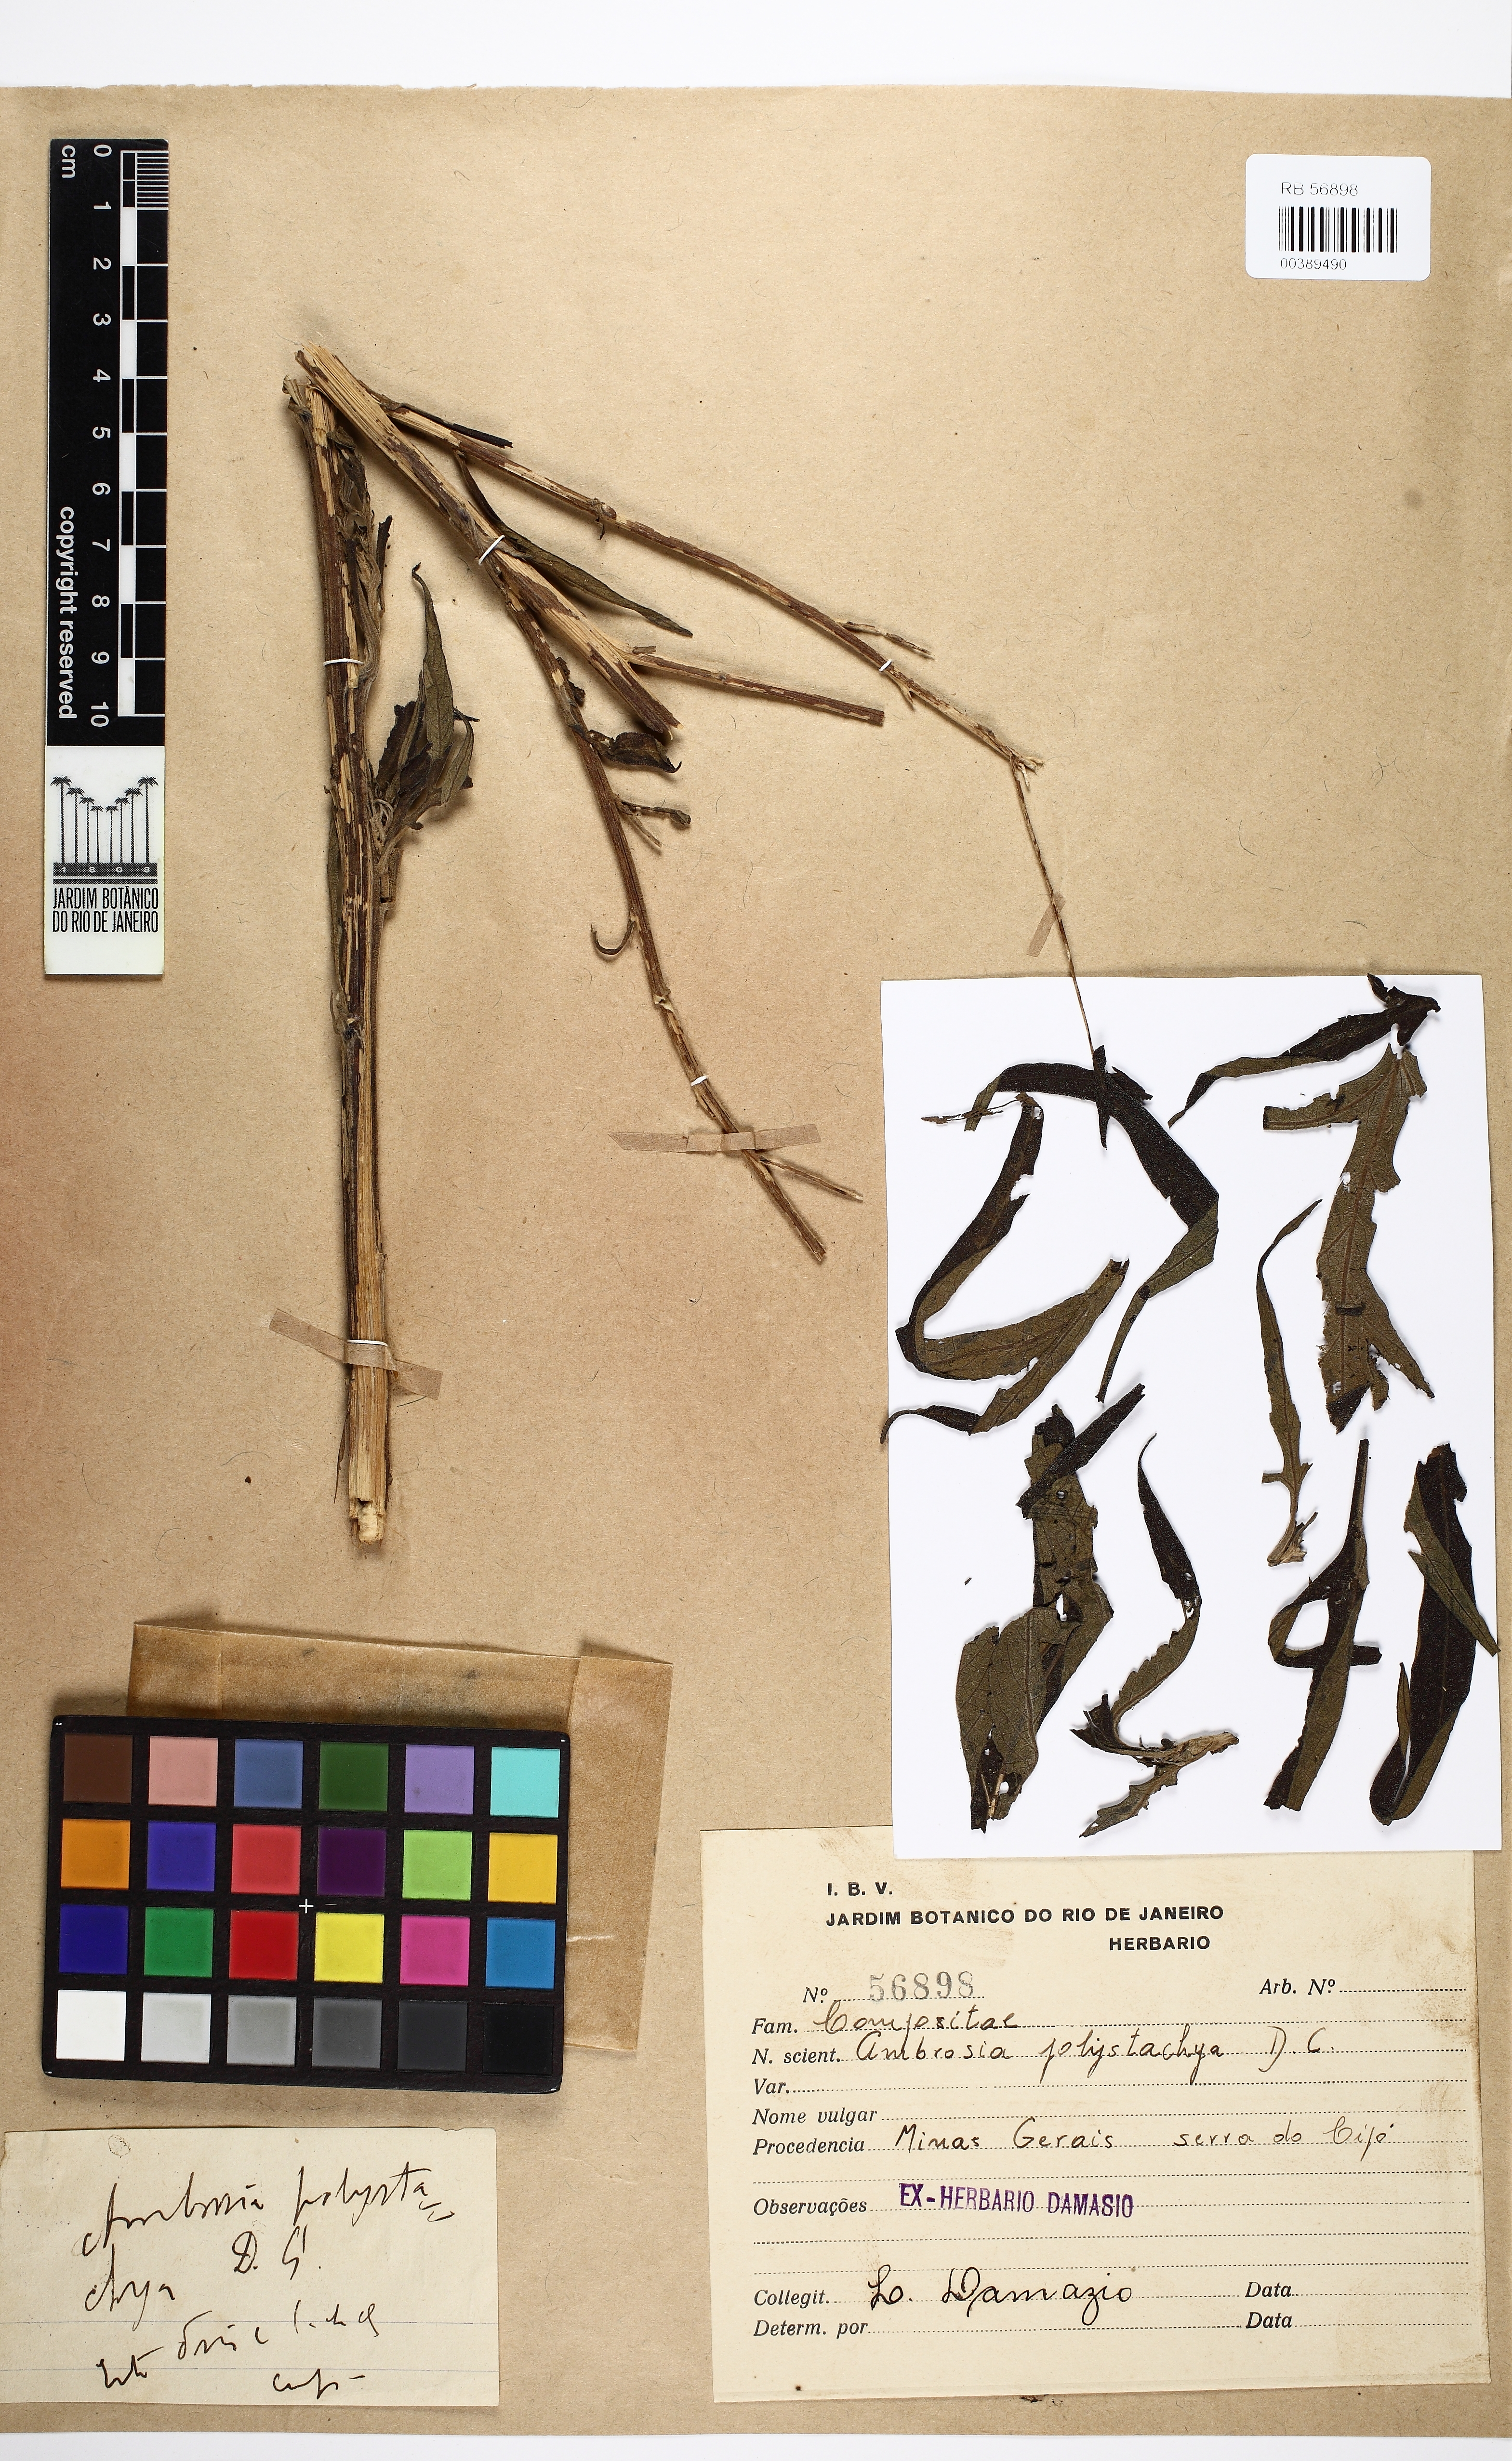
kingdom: Plantae
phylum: Tracheophyta
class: Magnoliopsida
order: Asterales
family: Asteraceae
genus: Ambrosia
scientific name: Ambrosia polystachya
